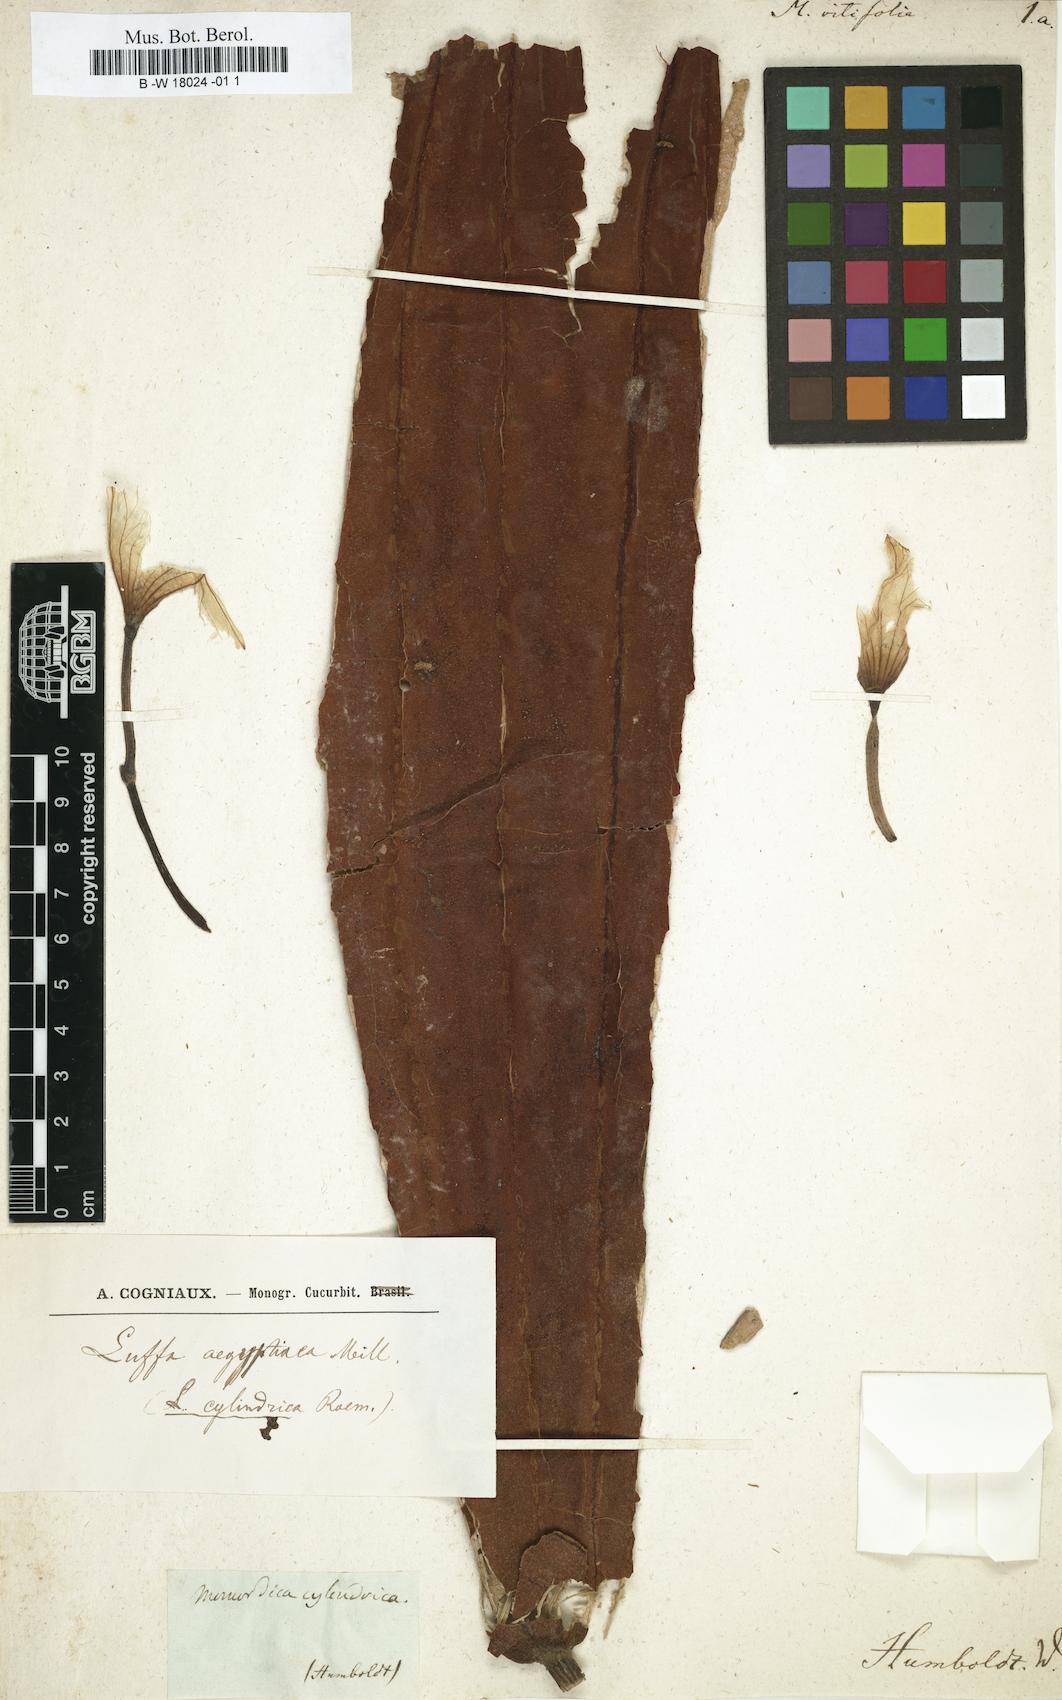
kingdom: Plantae
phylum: Tracheophyta
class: Magnoliopsida
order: Cucurbitales
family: Cucurbitaceae
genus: Momordica
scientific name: Momordica
